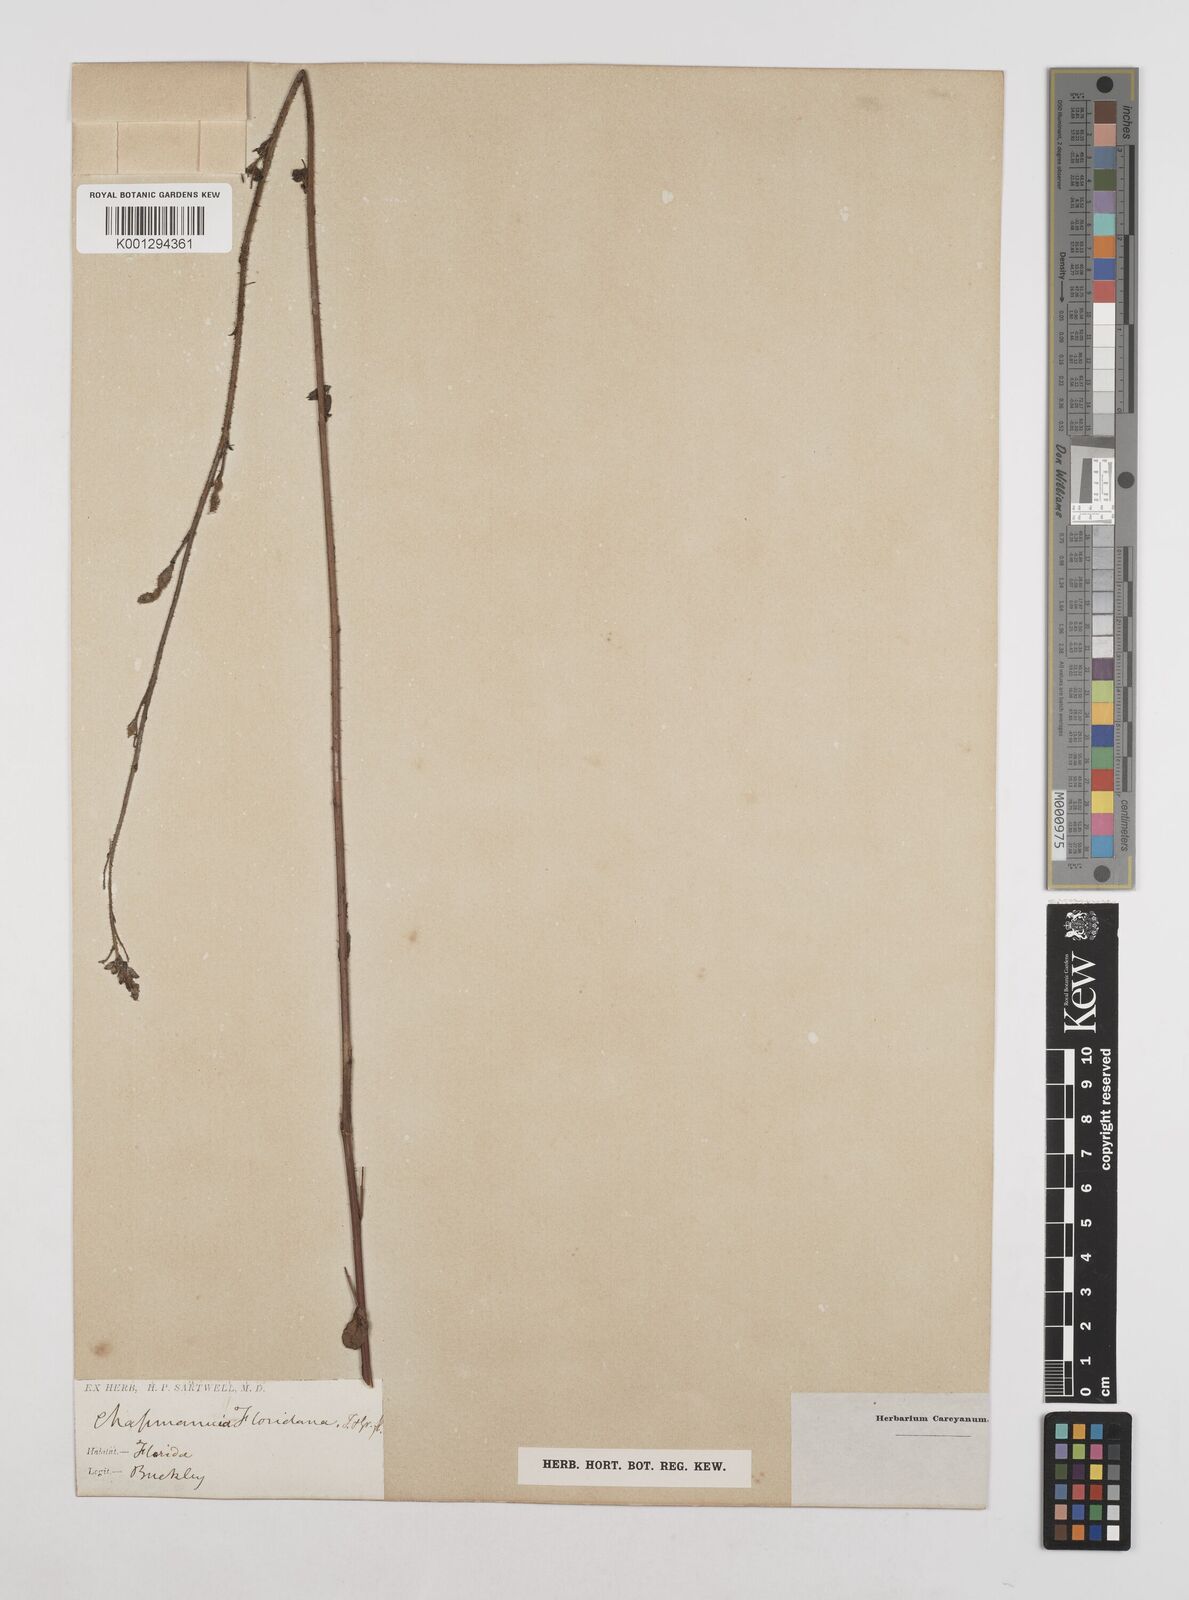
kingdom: Plantae
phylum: Tracheophyta
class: Magnoliopsida
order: Fabales
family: Fabaceae
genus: Chapmannia
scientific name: Chapmannia floridana
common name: Alicia
